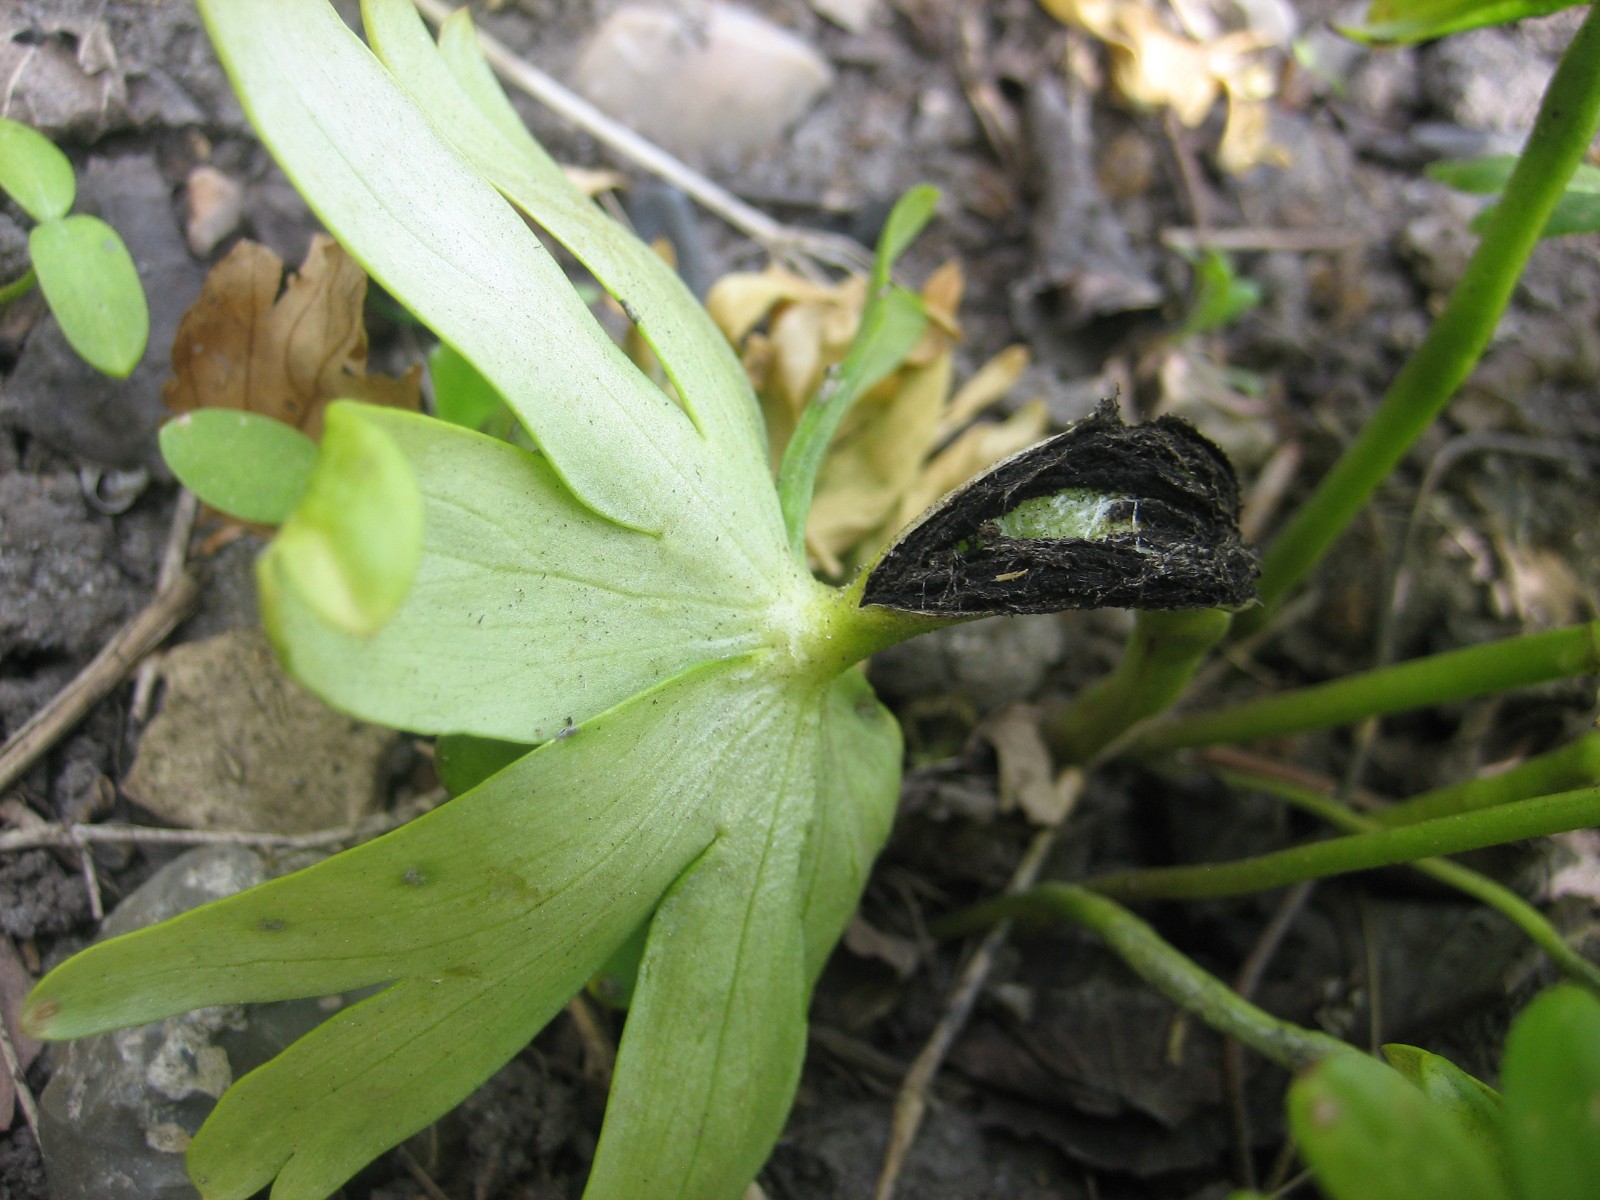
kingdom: Fungi
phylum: Basidiomycota
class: Ustilaginomycetes
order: Urocystidales
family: Urocystidaceae
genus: Urocystis
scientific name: Urocystis eranthidis
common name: erantis-brand
